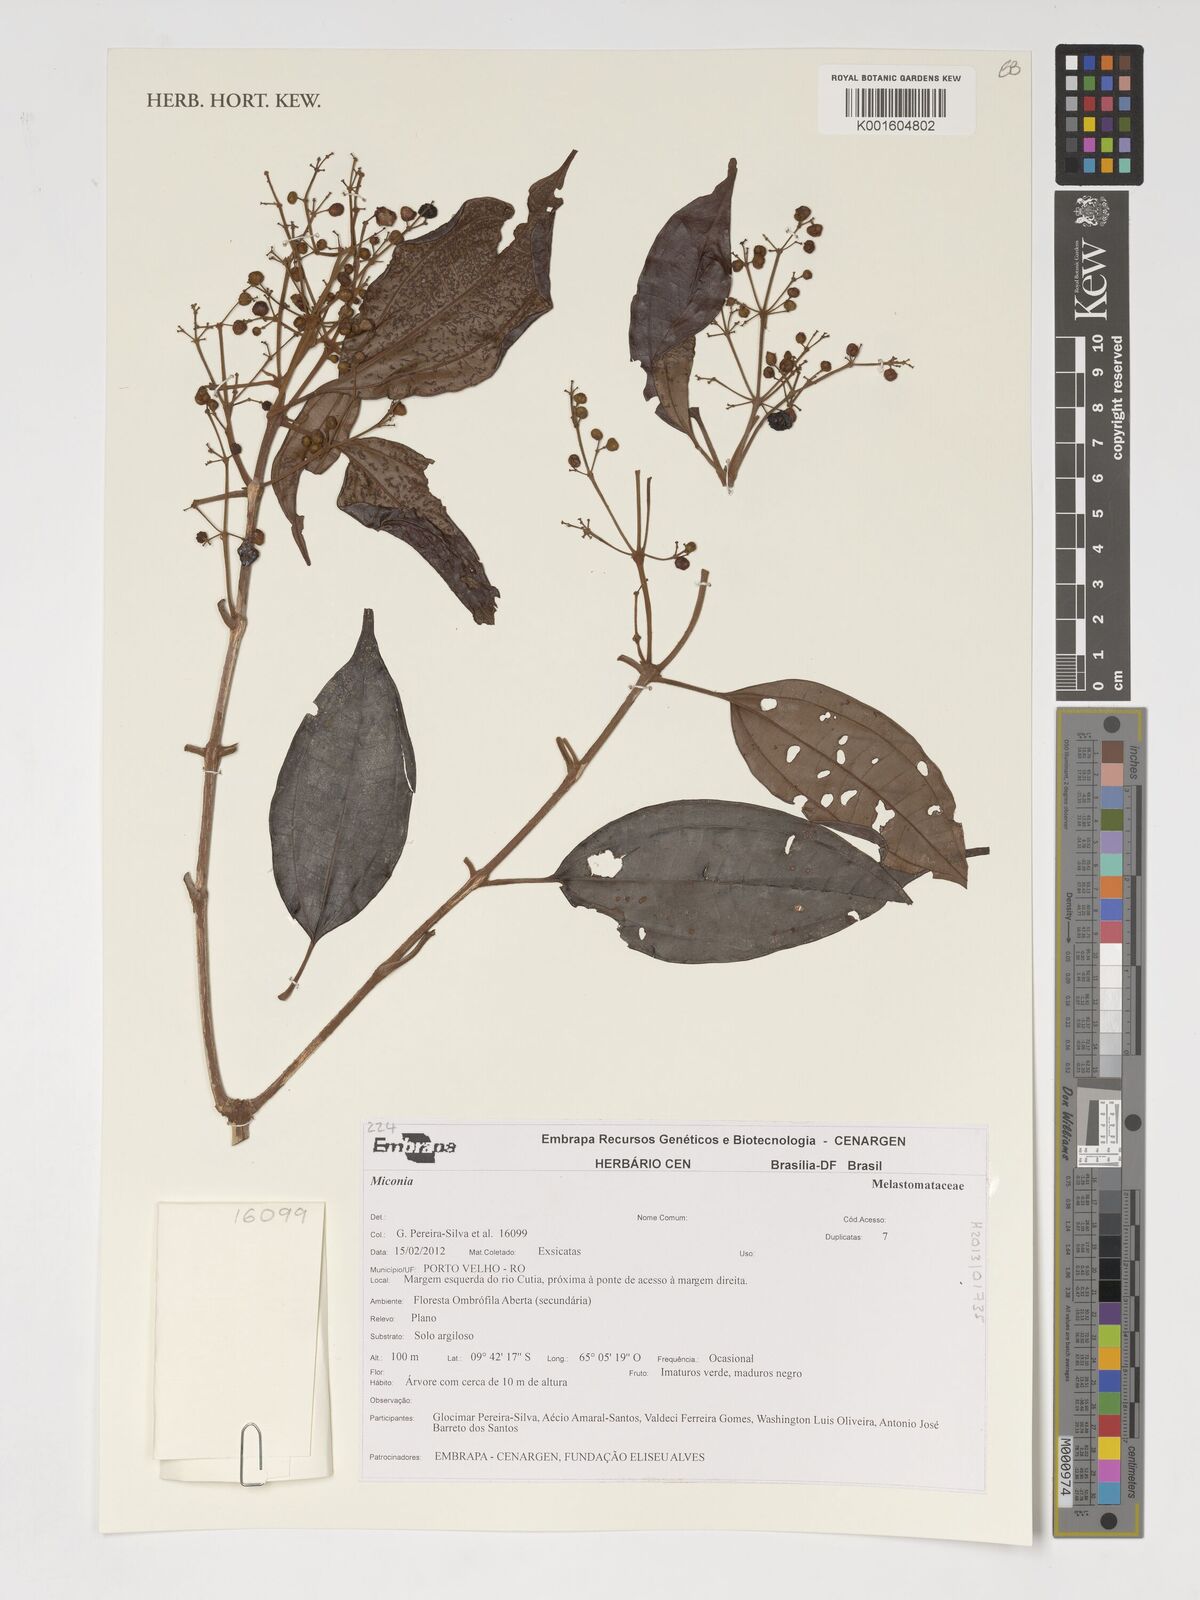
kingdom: Plantae
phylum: Tracheophyta
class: Magnoliopsida
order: Myrtales
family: Melastomataceae
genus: Miconia
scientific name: Miconia
